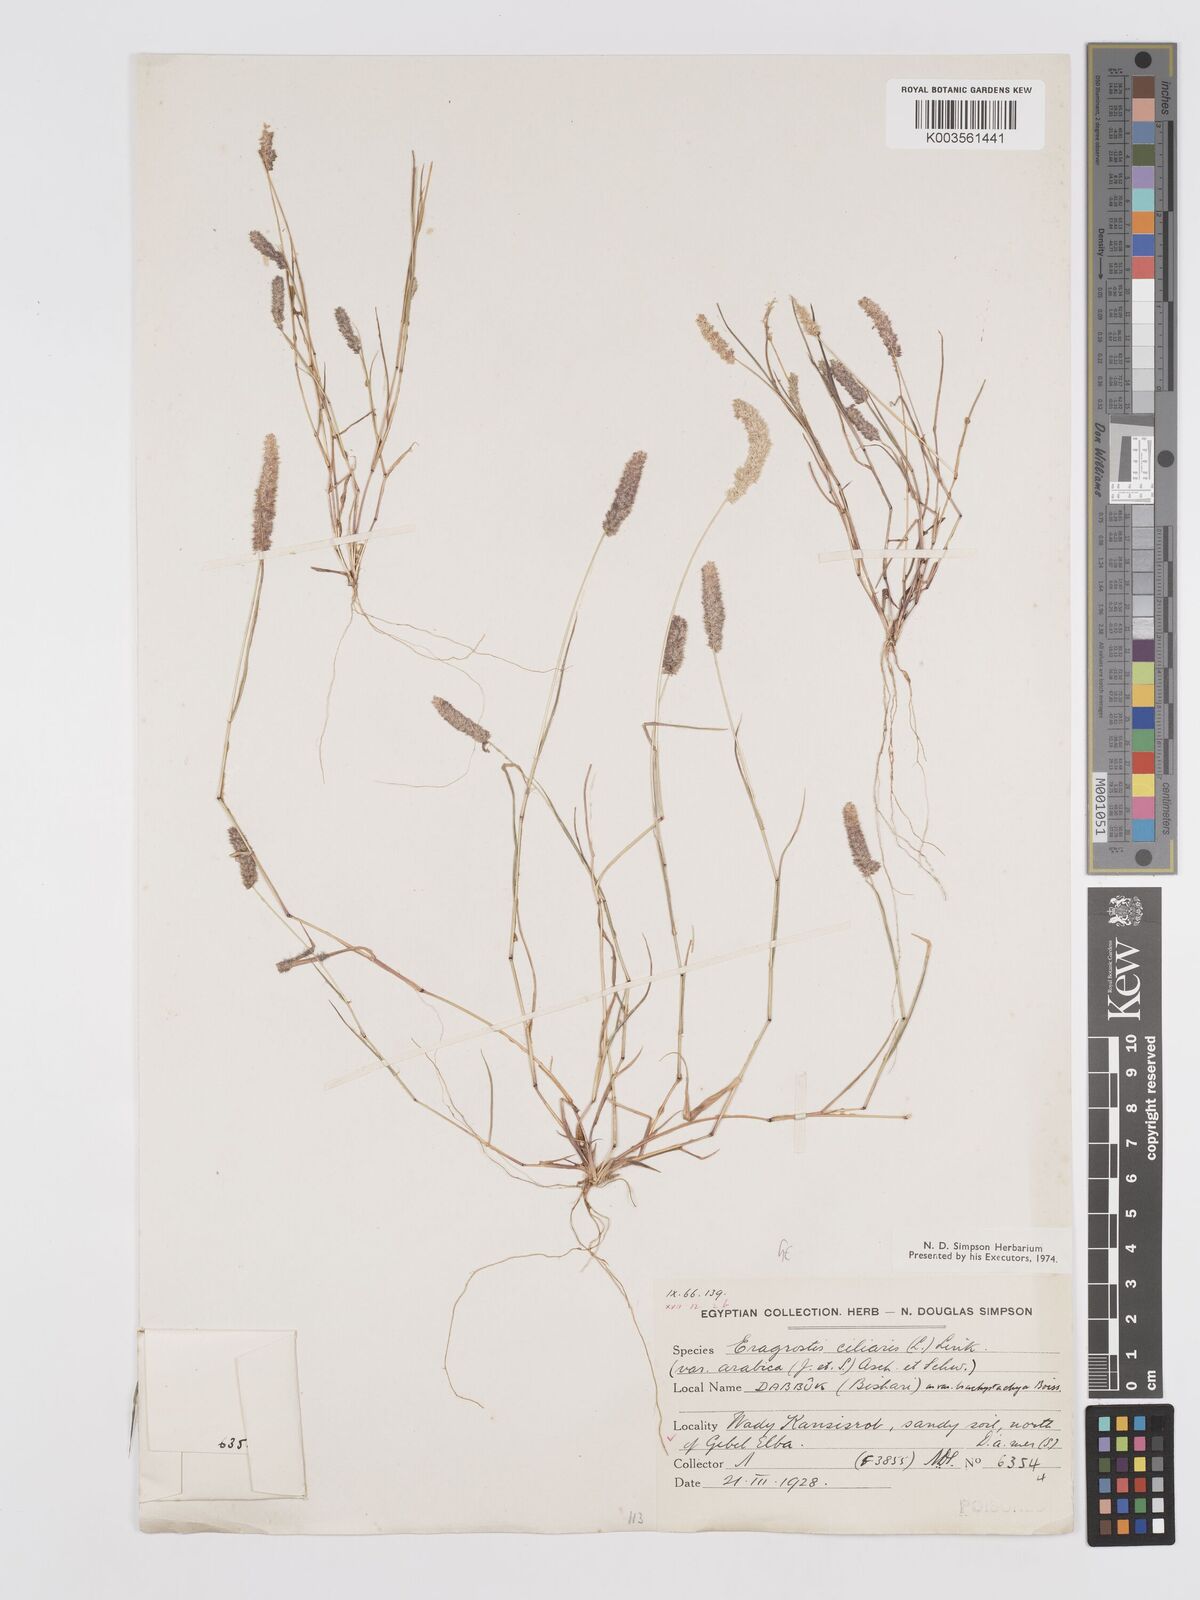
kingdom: Plantae
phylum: Tracheophyta
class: Liliopsida
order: Poales
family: Poaceae
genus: Eragrostis
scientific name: Eragrostis ciliaris
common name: Gophertail lovegrass
